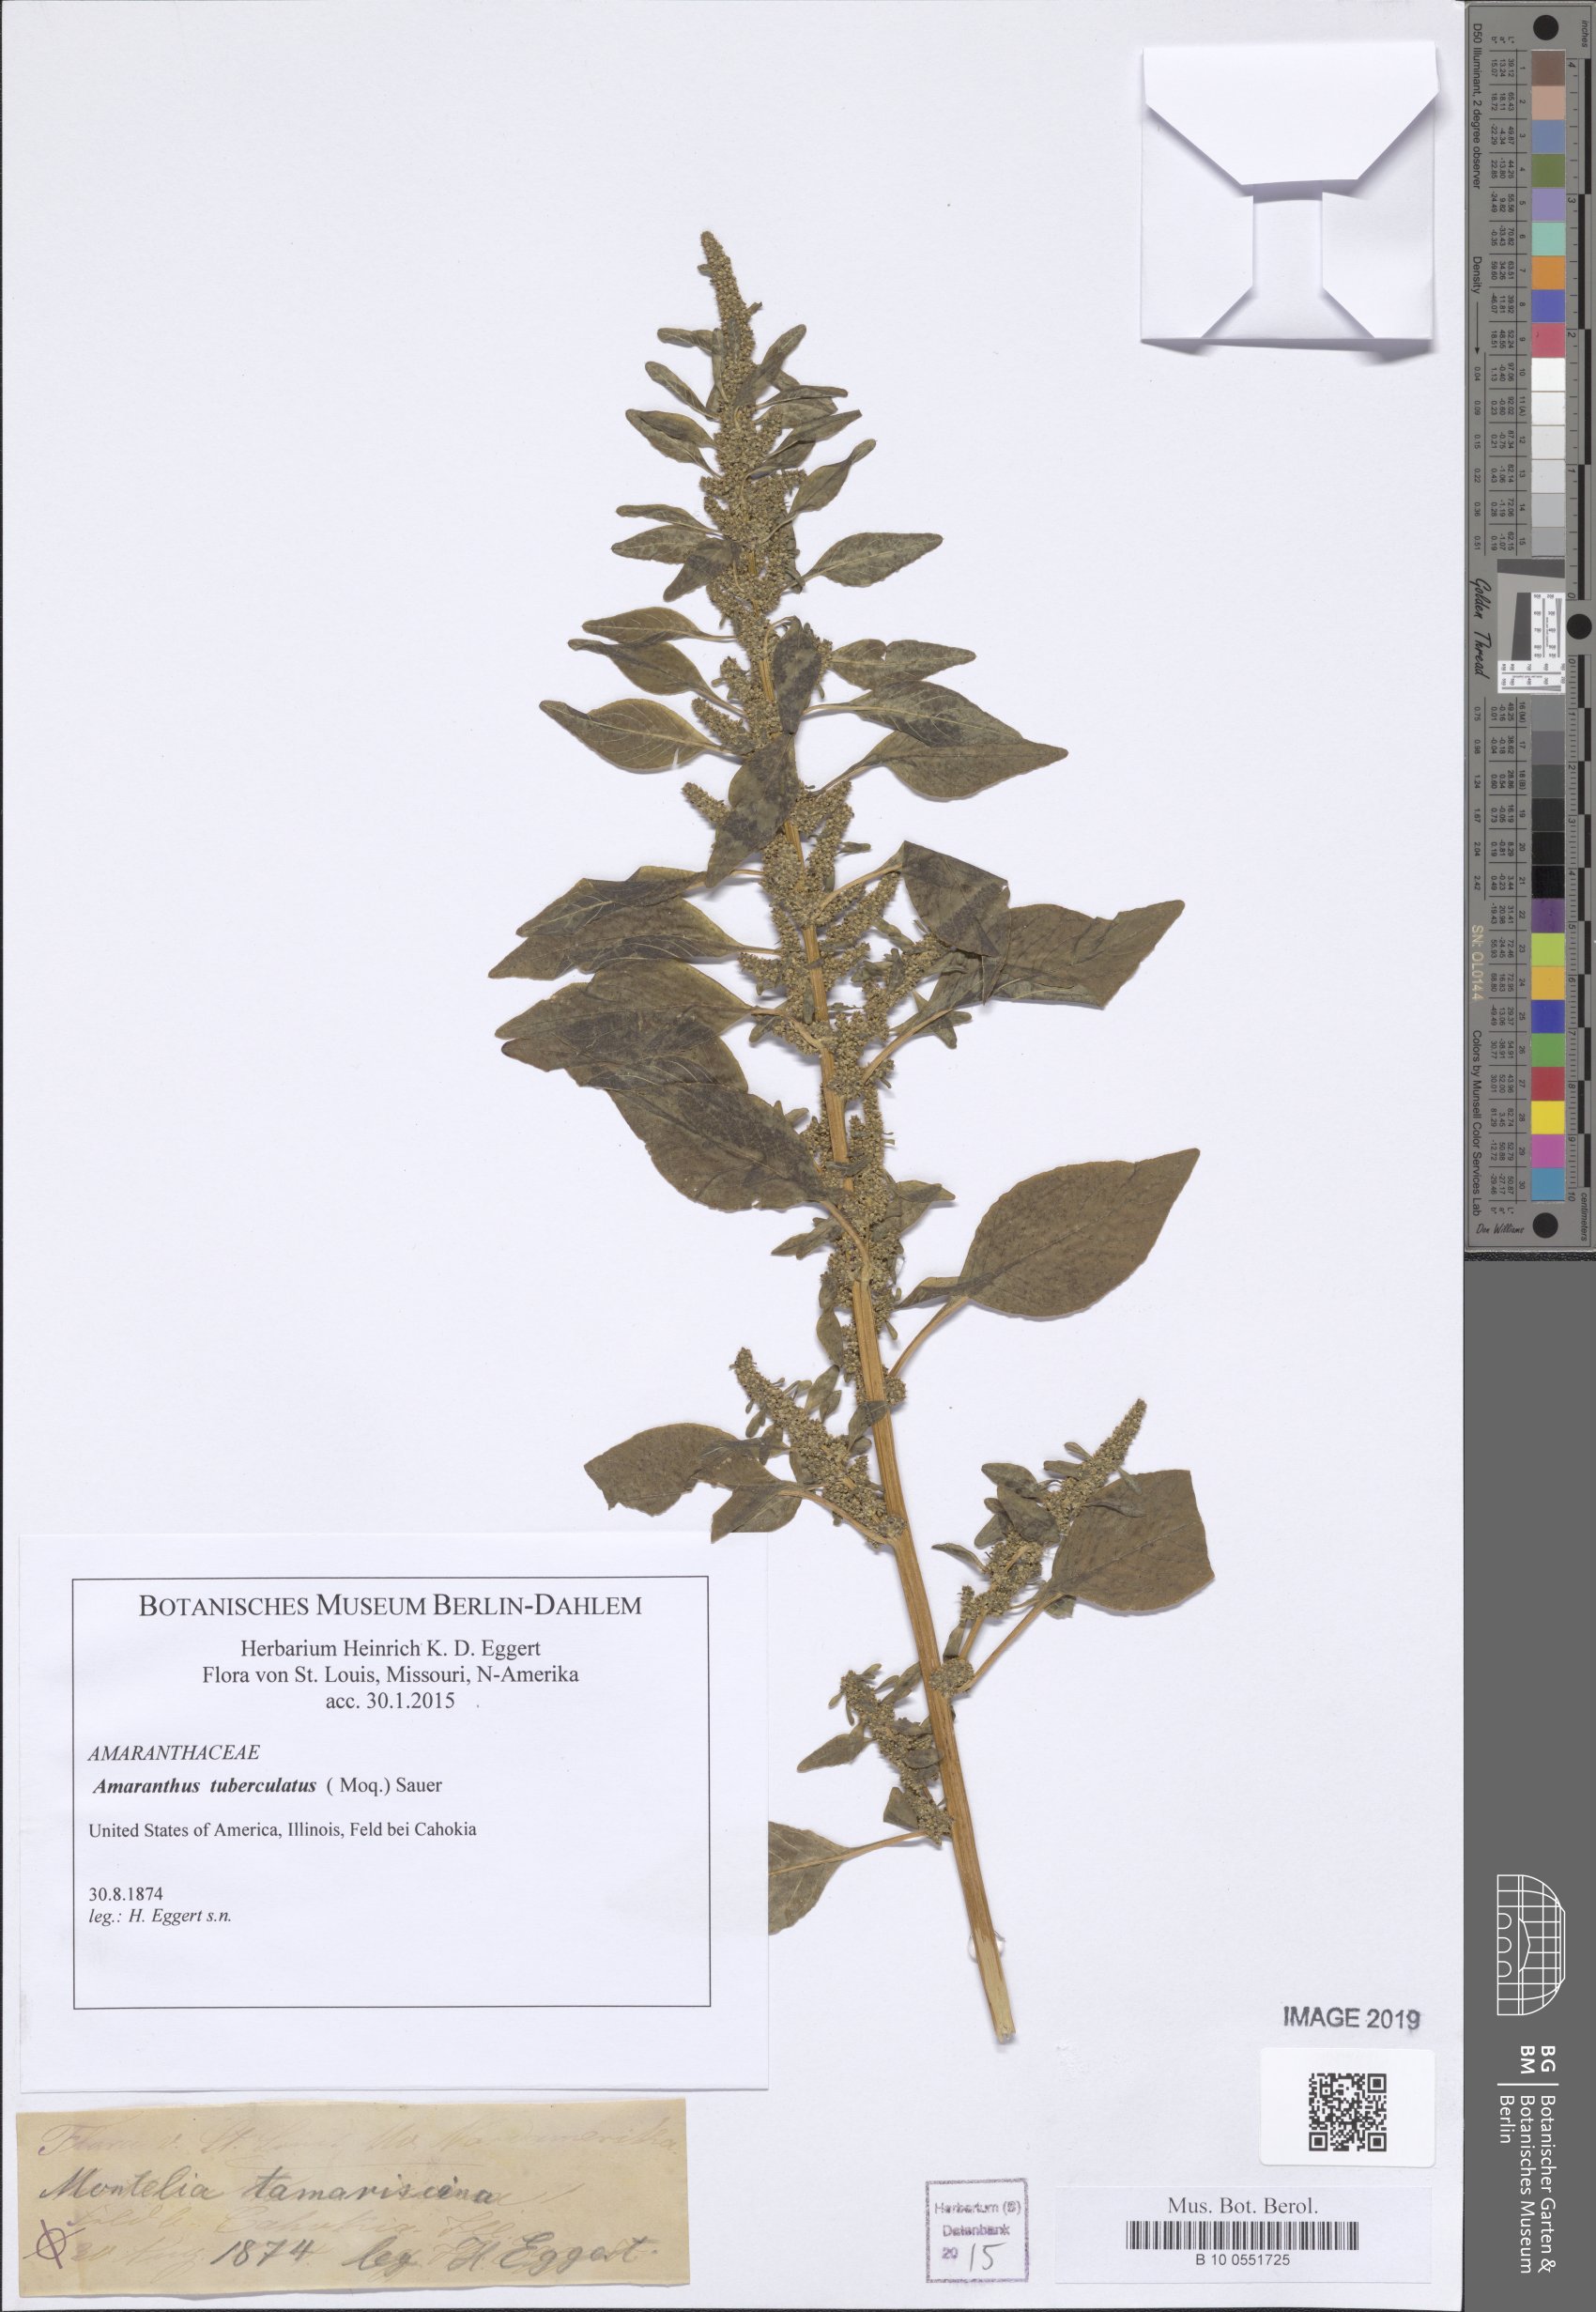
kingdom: Plantae
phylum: Tracheophyta
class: Magnoliopsida
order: Caryophyllales
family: Amaranthaceae
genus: Amaranthus
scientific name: Amaranthus tuberculatus
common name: Rough-fruit amaranth
